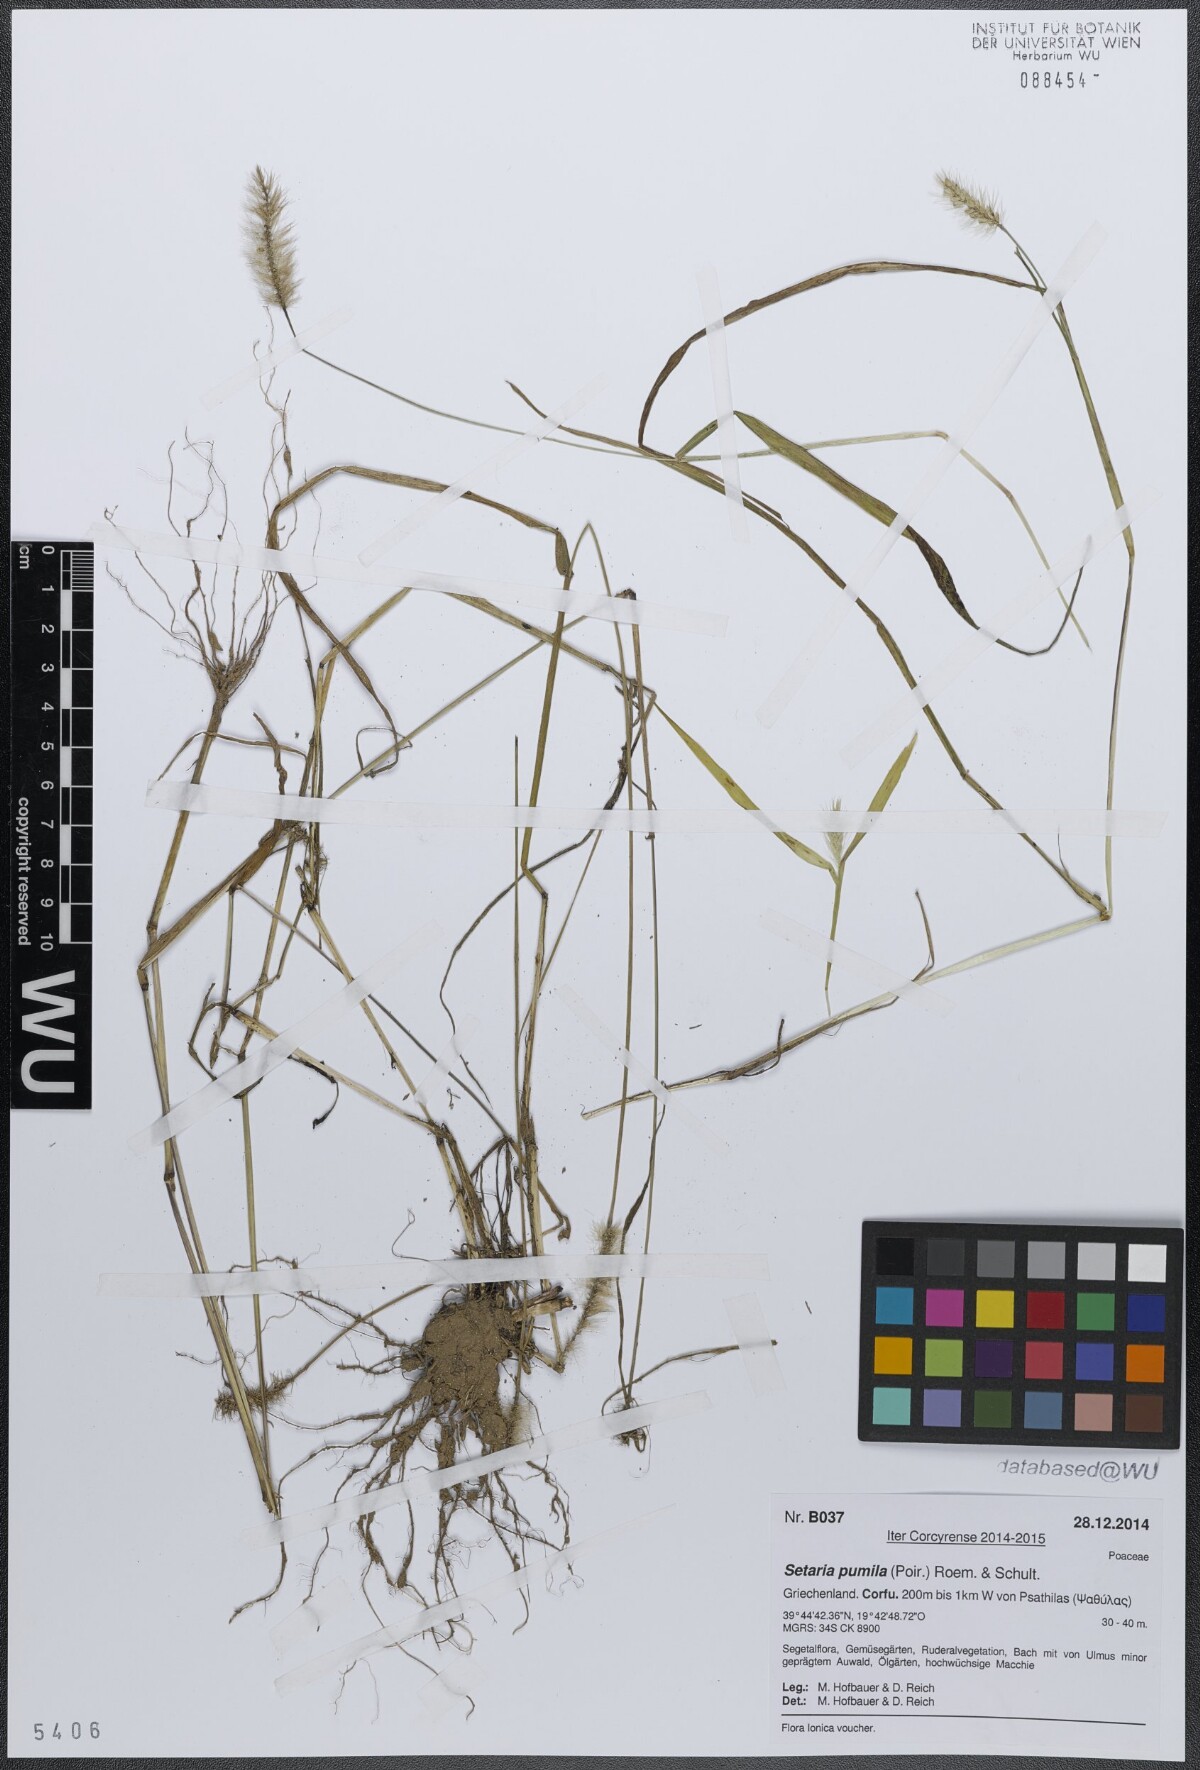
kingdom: Plantae
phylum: Tracheophyta
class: Liliopsida
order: Poales
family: Poaceae
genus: Setaria
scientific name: Setaria pumila
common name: Yellow bristle-grass
